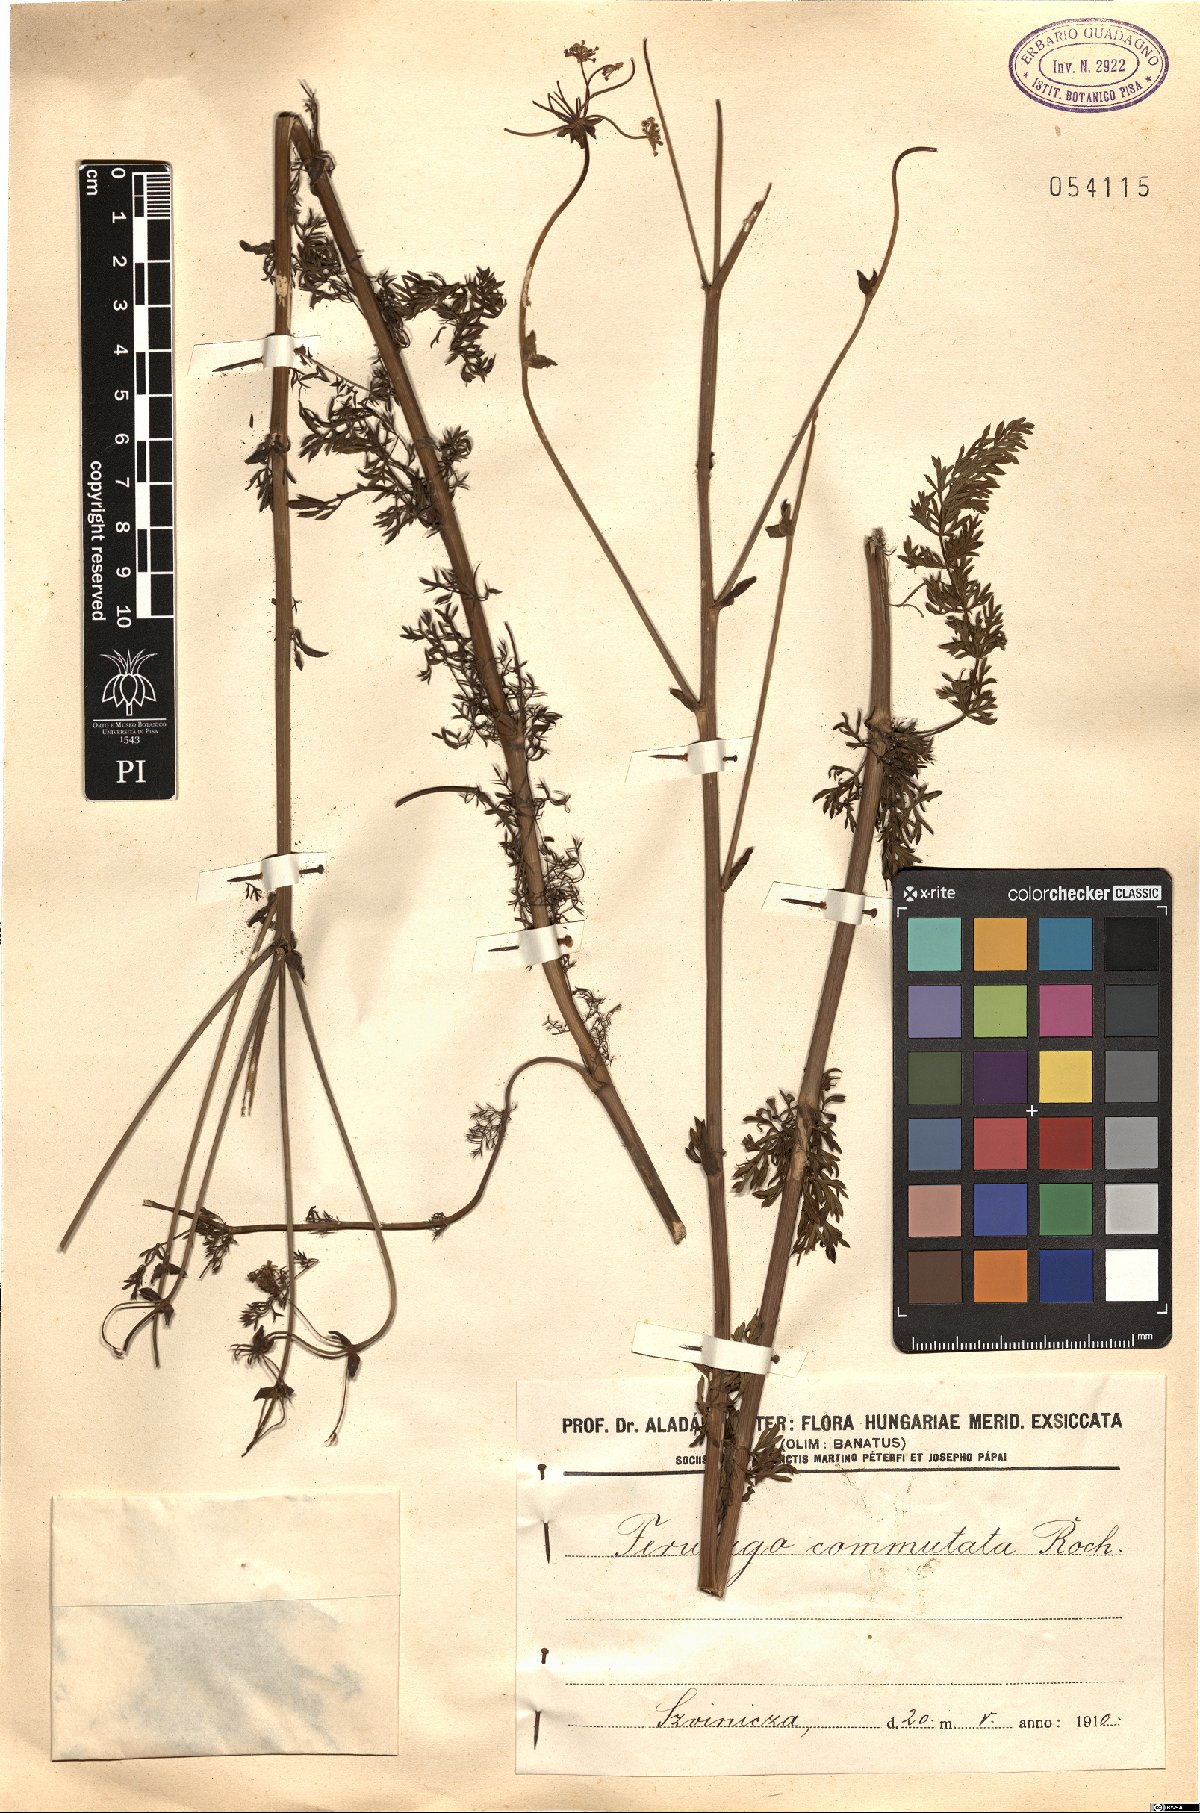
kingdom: Plantae
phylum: Tracheophyta
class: Magnoliopsida
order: Apiales
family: Apiaceae
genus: Ferulago
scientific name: Ferulago sylvatica
